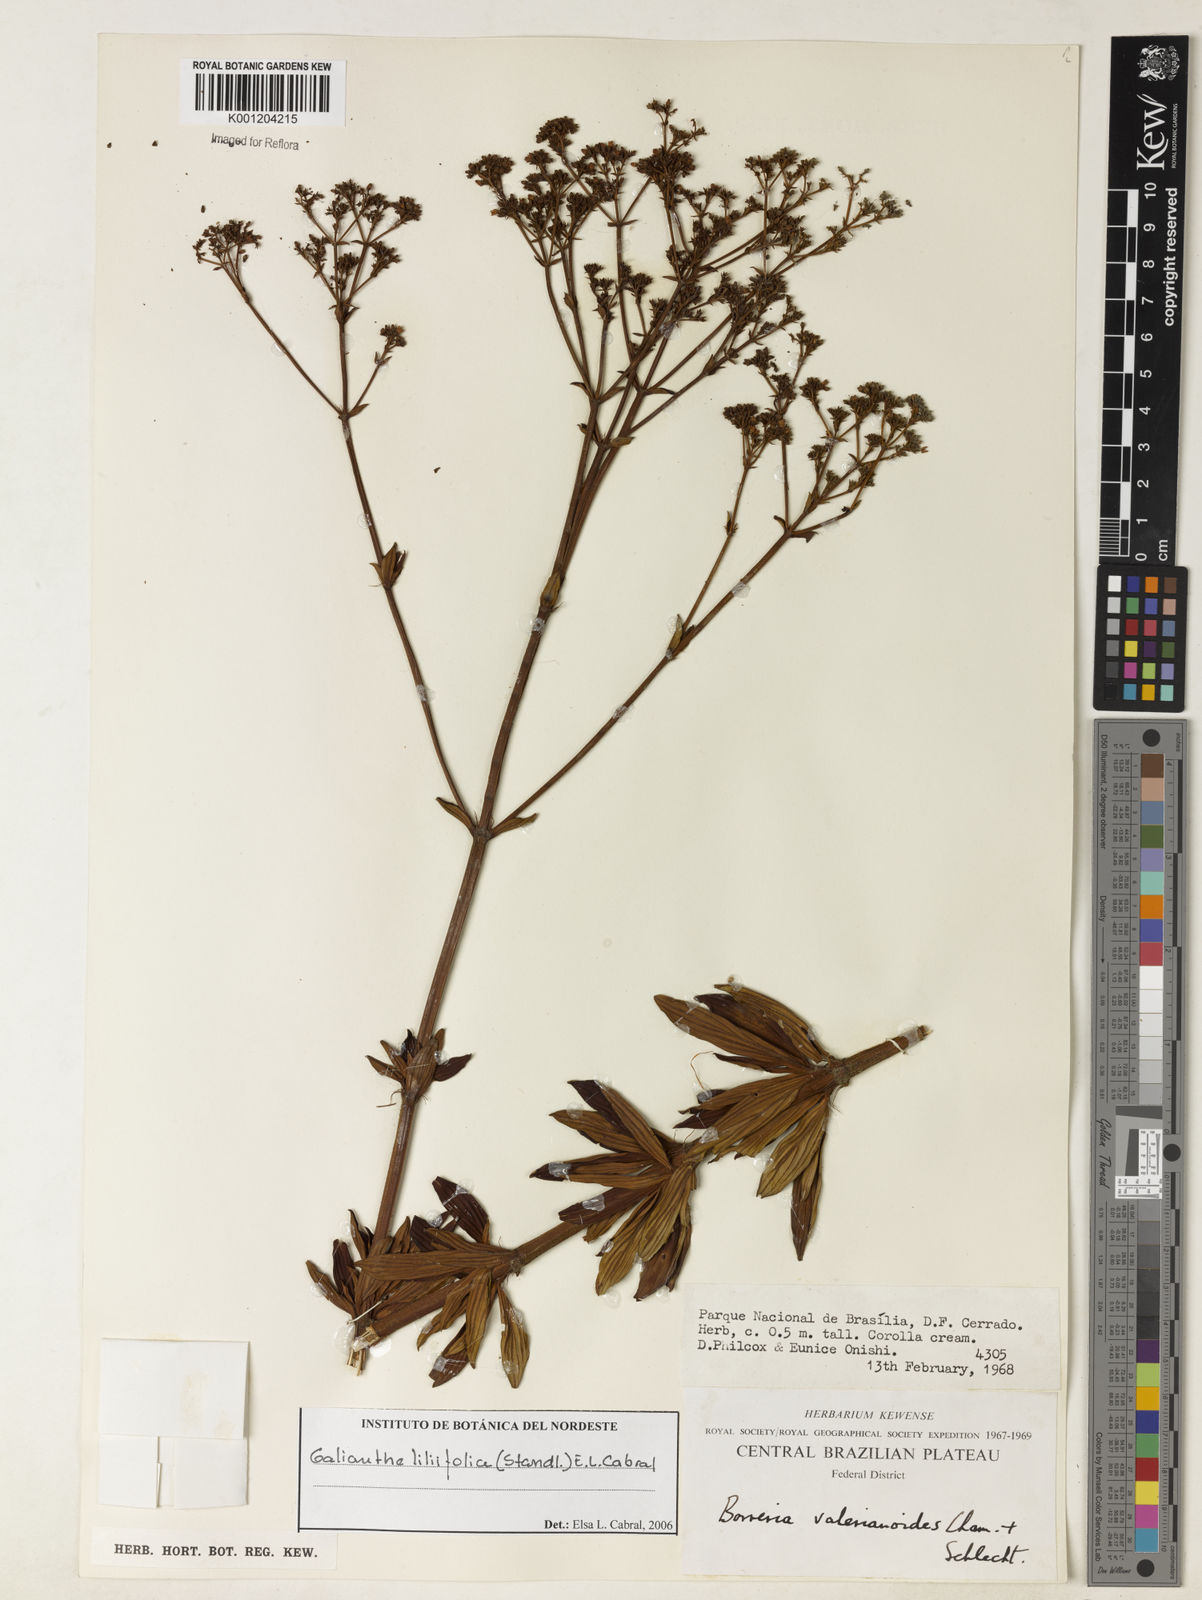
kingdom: Plantae
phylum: Tracheophyta
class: Magnoliopsida
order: Gentianales
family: Rubiaceae
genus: Galianthe
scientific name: Galianthe liliifolia
